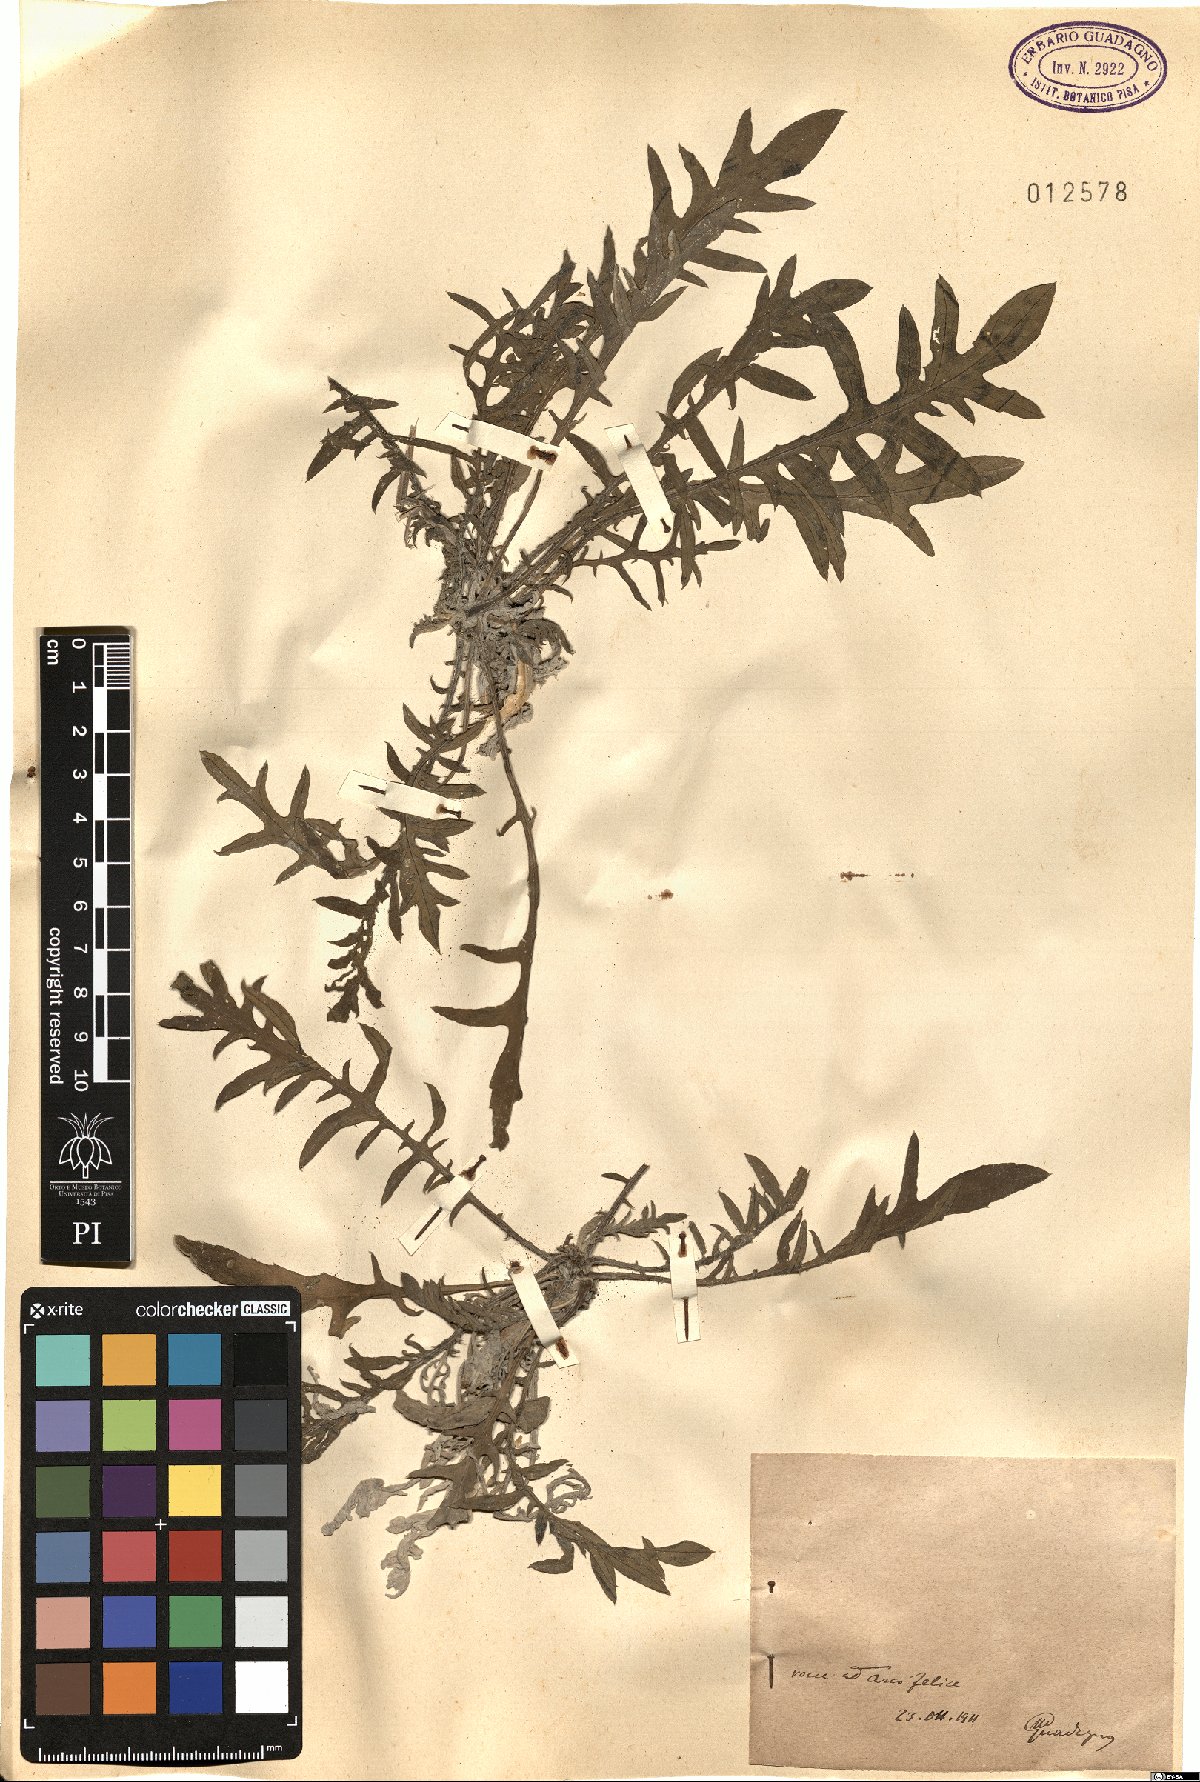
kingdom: Plantae
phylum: Tracheophyta
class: Magnoliopsida
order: Asterales
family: Asteraceae
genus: Centaurea
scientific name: Centaurea
